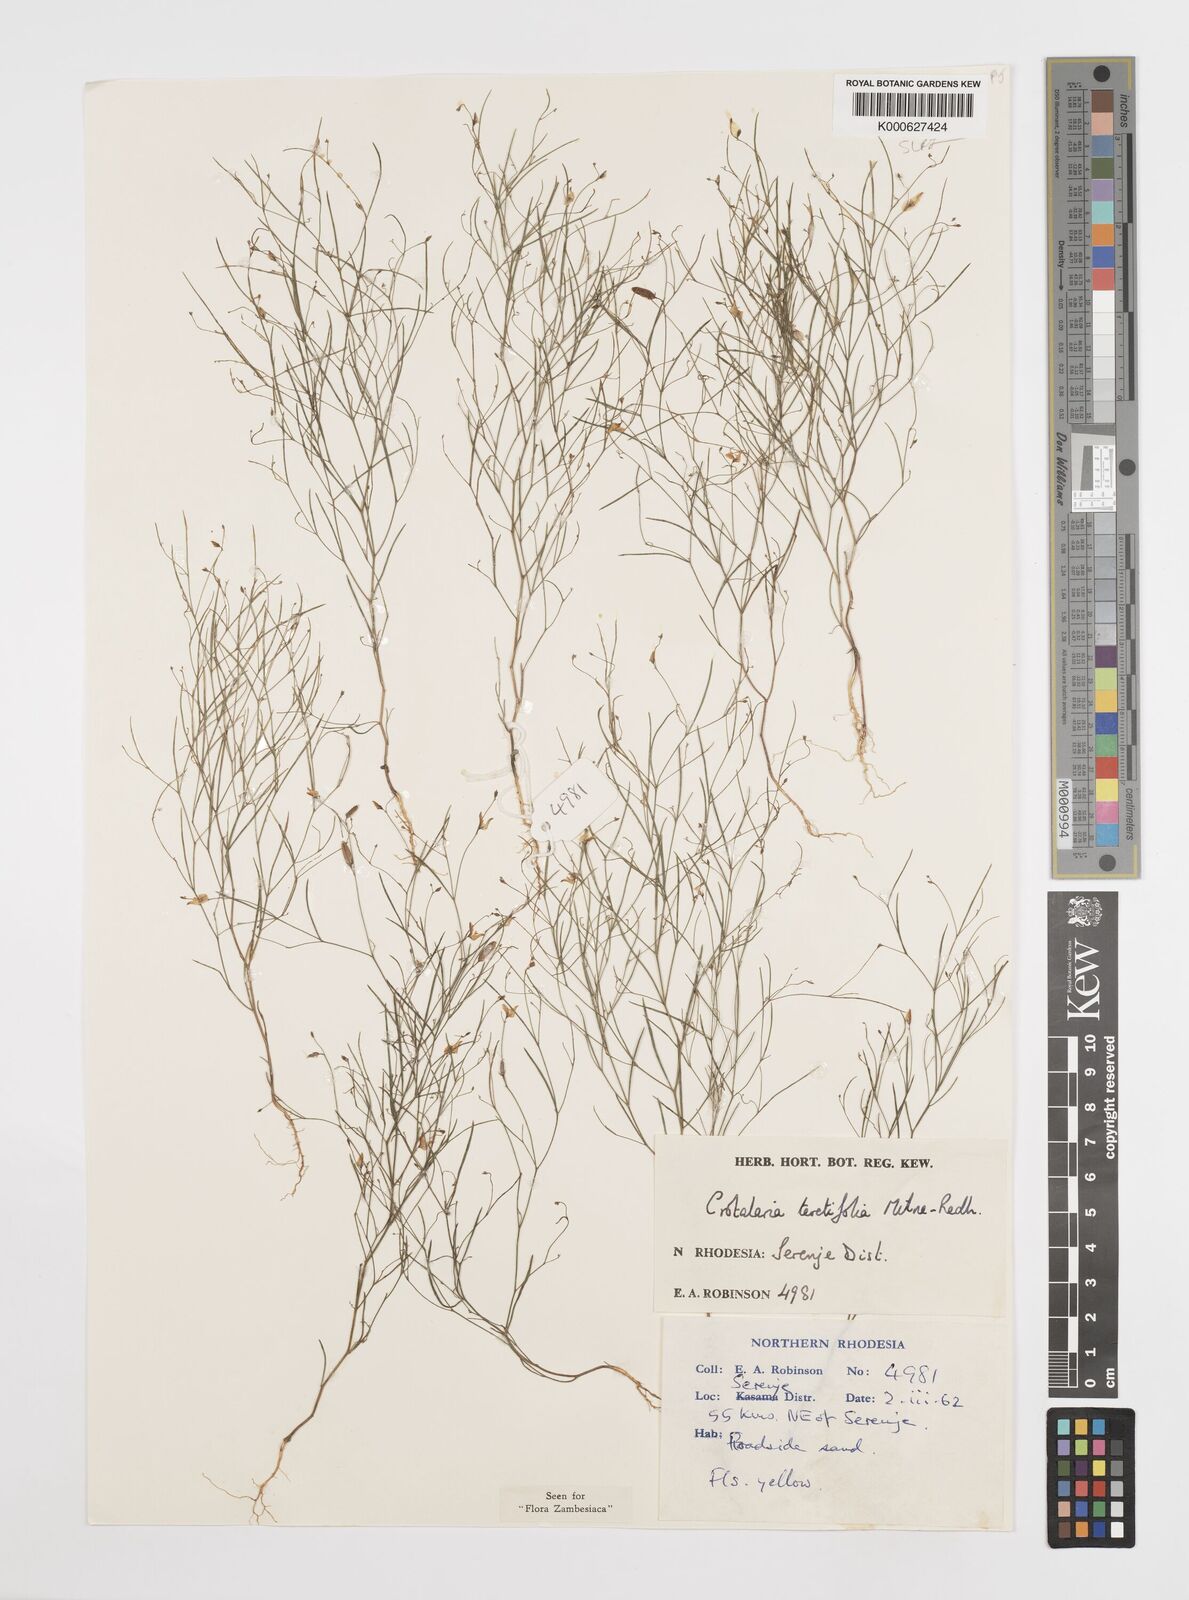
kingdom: Plantae
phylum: Tracheophyta
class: Magnoliopsida
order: Fabales
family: Fabaceae
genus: Crotalaria
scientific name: Crotalaria teretifolia
